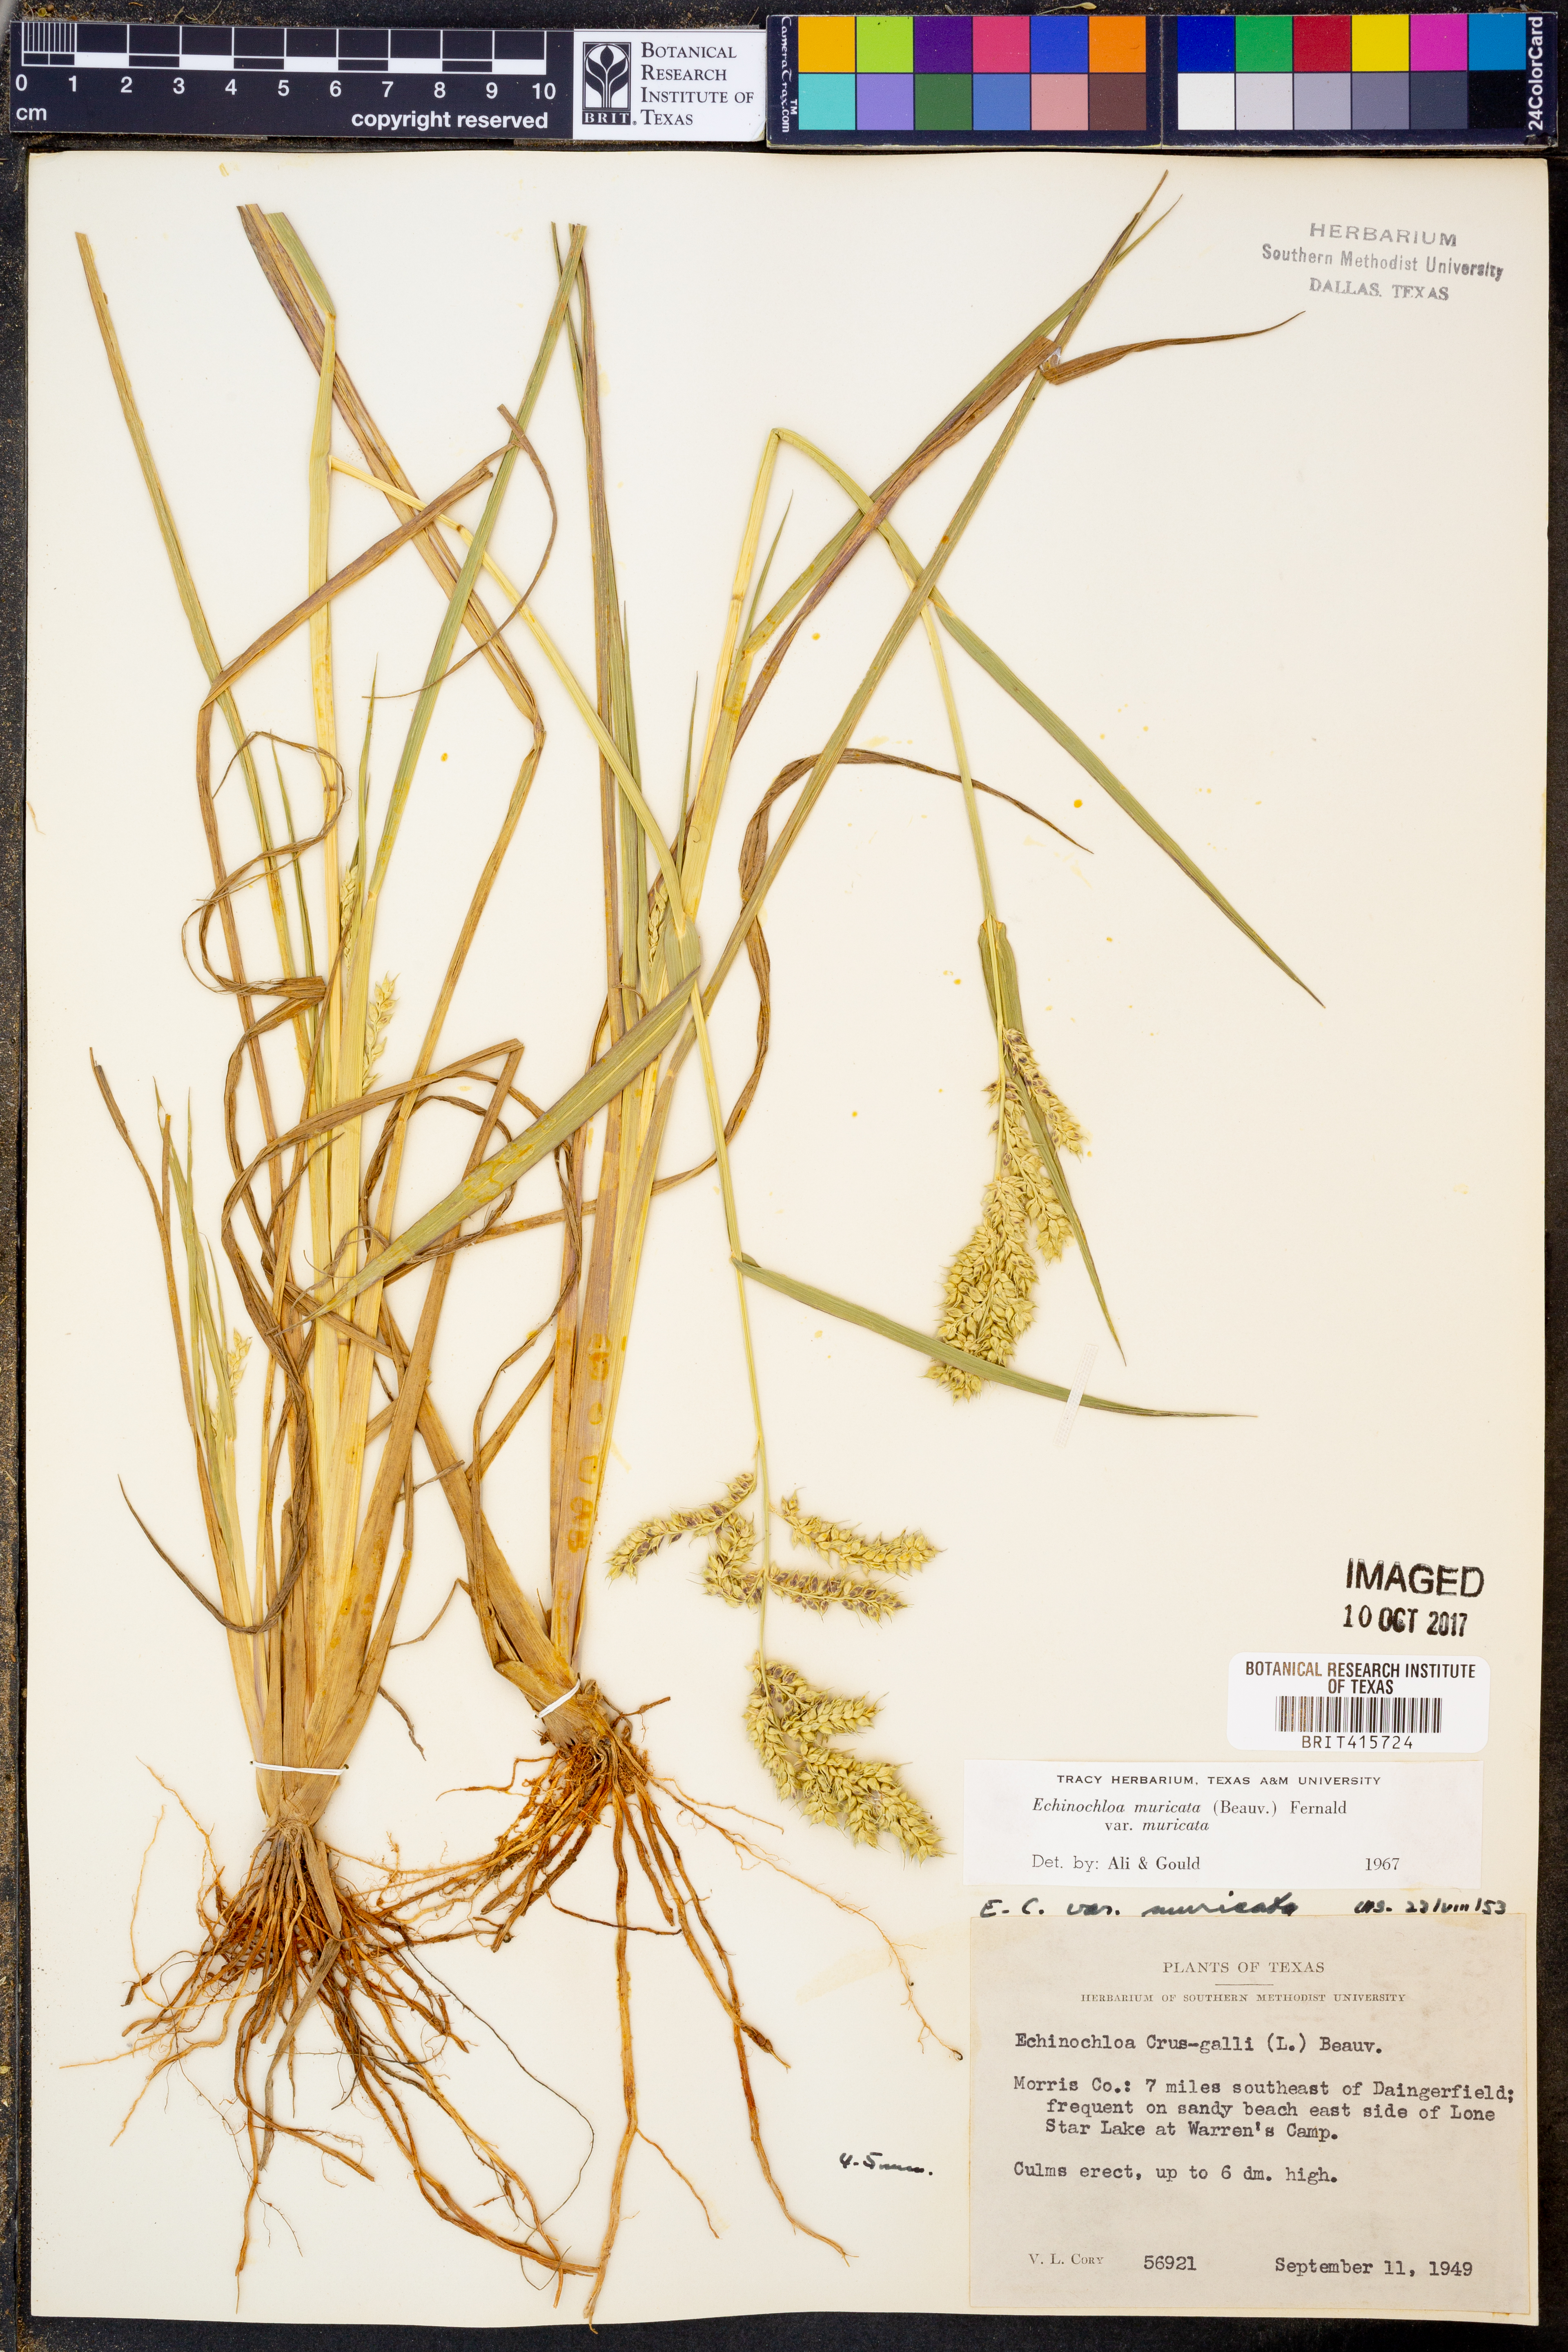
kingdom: Plantae
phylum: Tracheophyta
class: Liliopsida
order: Poales
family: Poaceae
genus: Echinochloa
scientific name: Echinochloa muricata
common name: American barnyard grass
